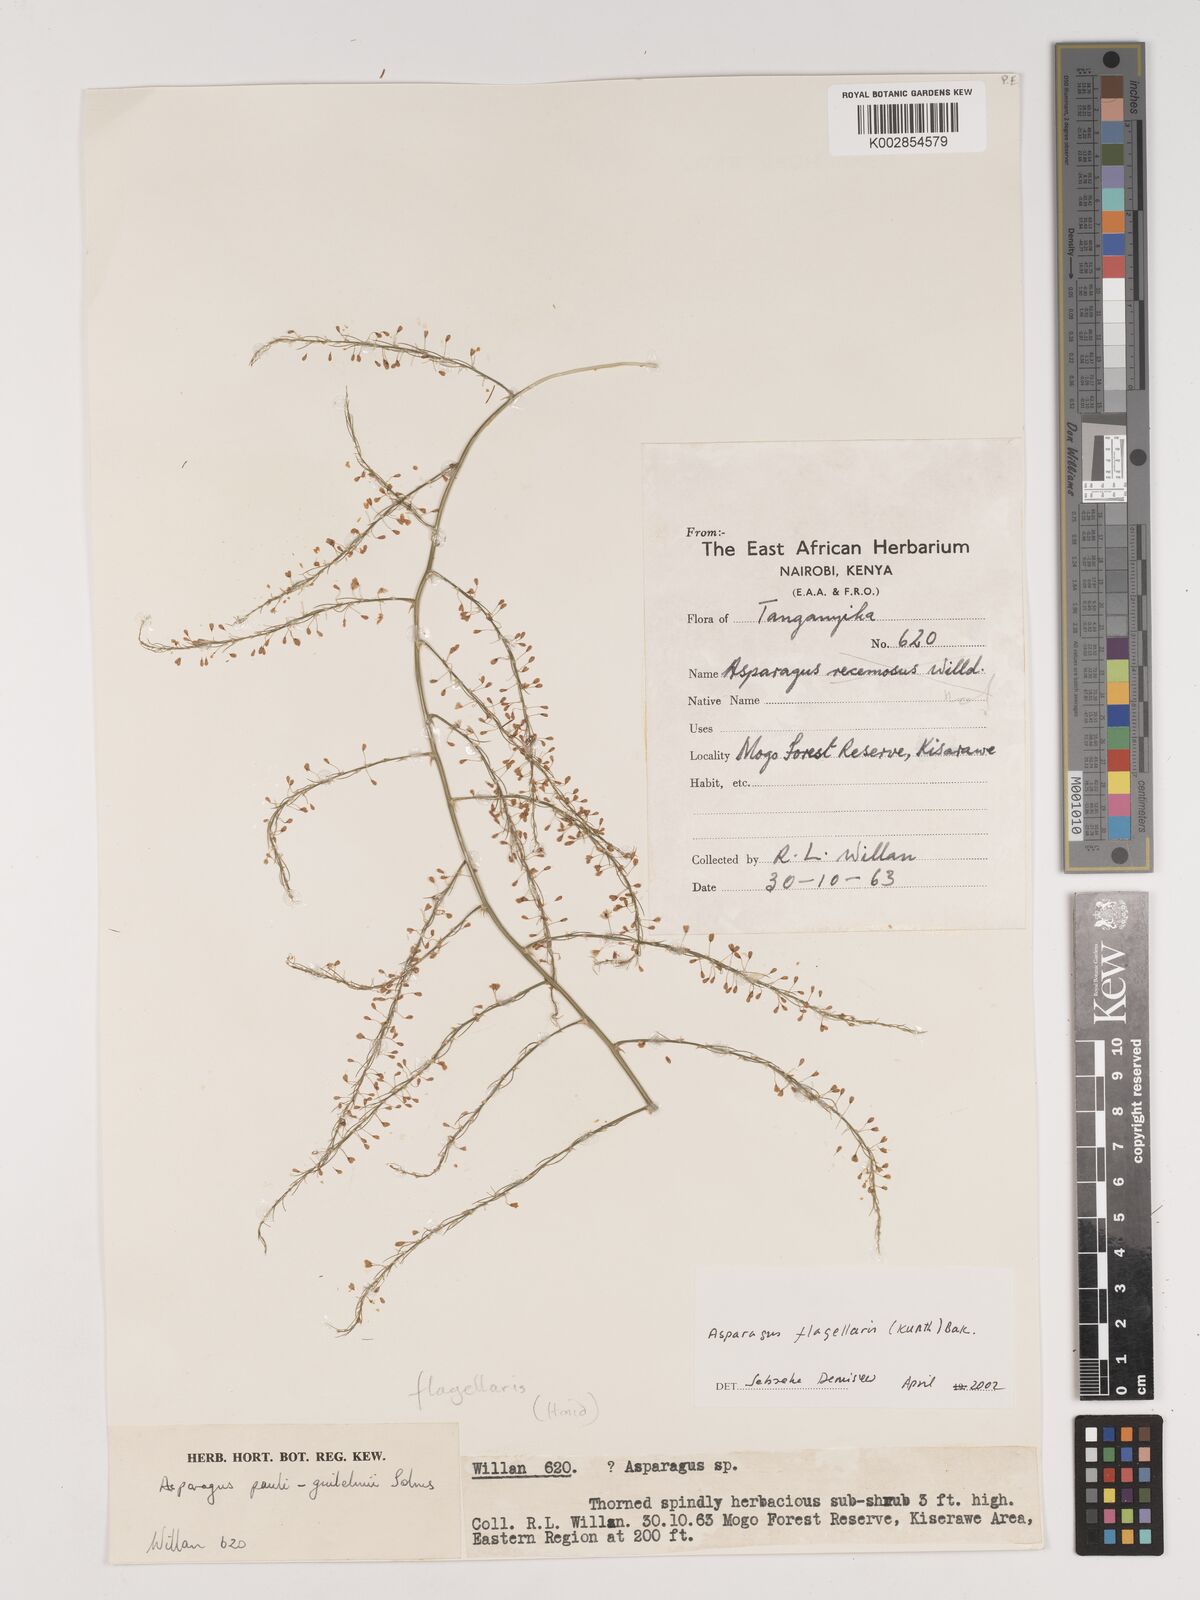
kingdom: Plantae
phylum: Tracheophyta
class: Liliopsida
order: Asparagales
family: Asparagaceae
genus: Asparagus
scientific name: Asparagus flagellaris
